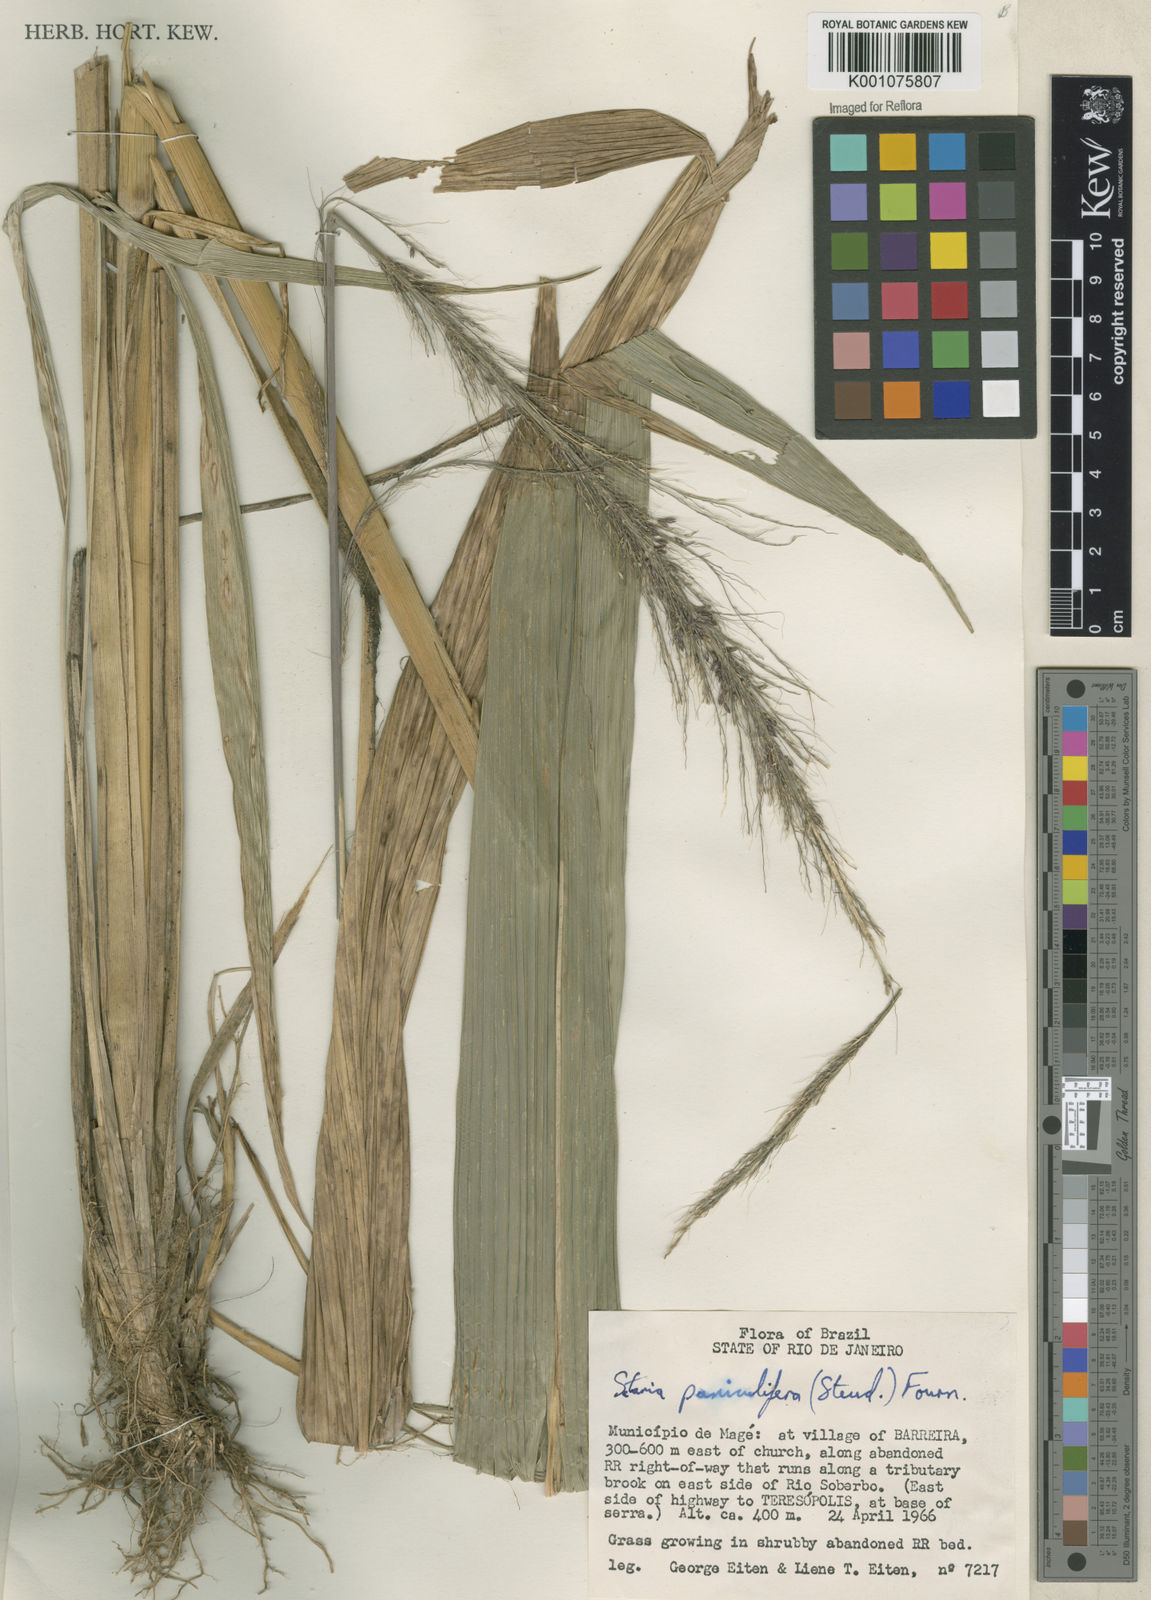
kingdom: Plantae
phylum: Tracheophyta
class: Liliopsida
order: Poales
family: Poaceae
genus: Setaria
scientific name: Setaria megaphylla
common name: Bigleaf bristlegrass
